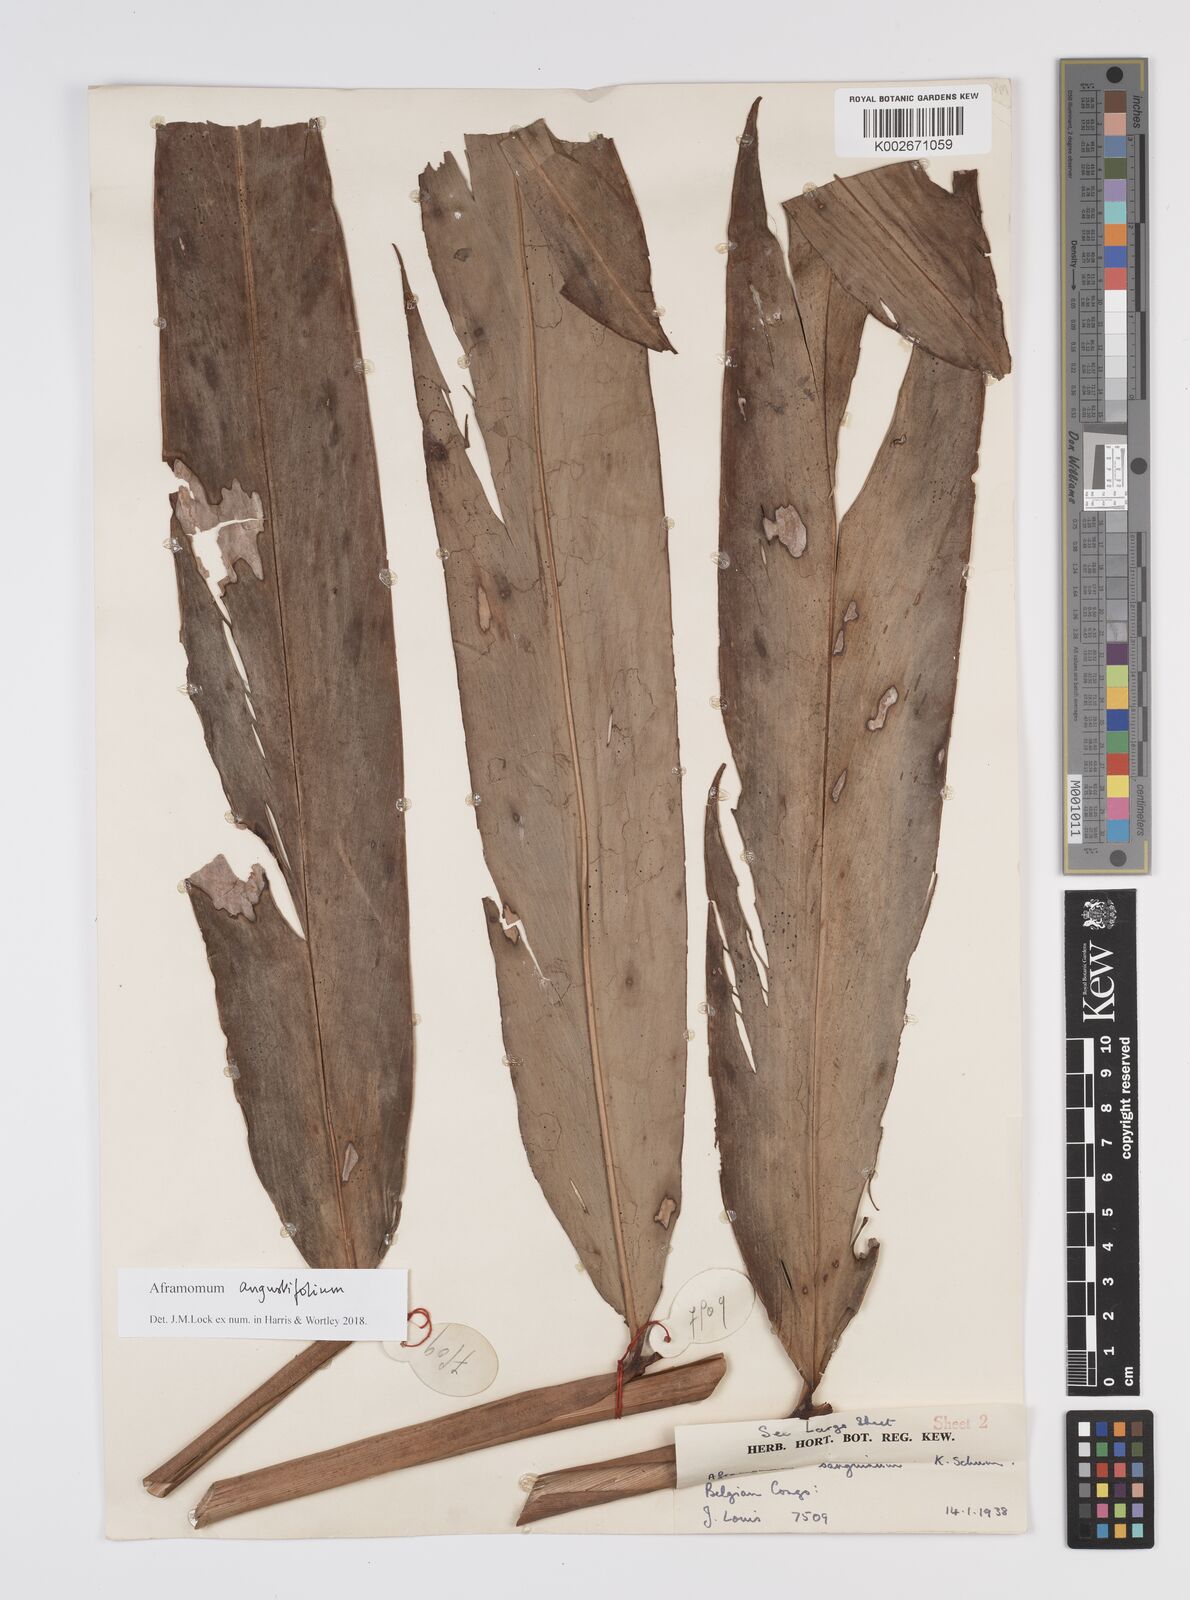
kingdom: Plantae
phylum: Tracheophyta
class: Liliopsida
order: Zingiberales
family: Zingiberaceae
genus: Aframomum
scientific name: Aframomum angustifolium
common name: Guinea grains
